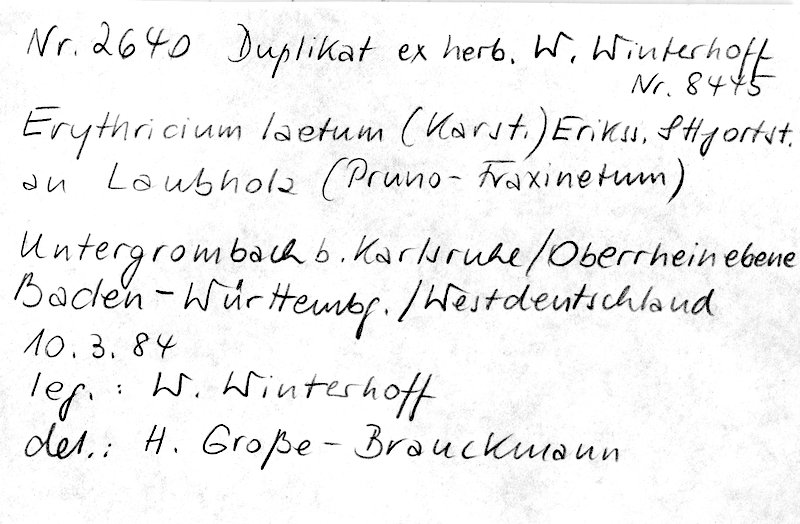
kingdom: Fungi
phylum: Basidiomycota
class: Agaricomycetes
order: Corticiales
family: Corticiaceae
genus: Erythricium
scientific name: Erythricium laetum
